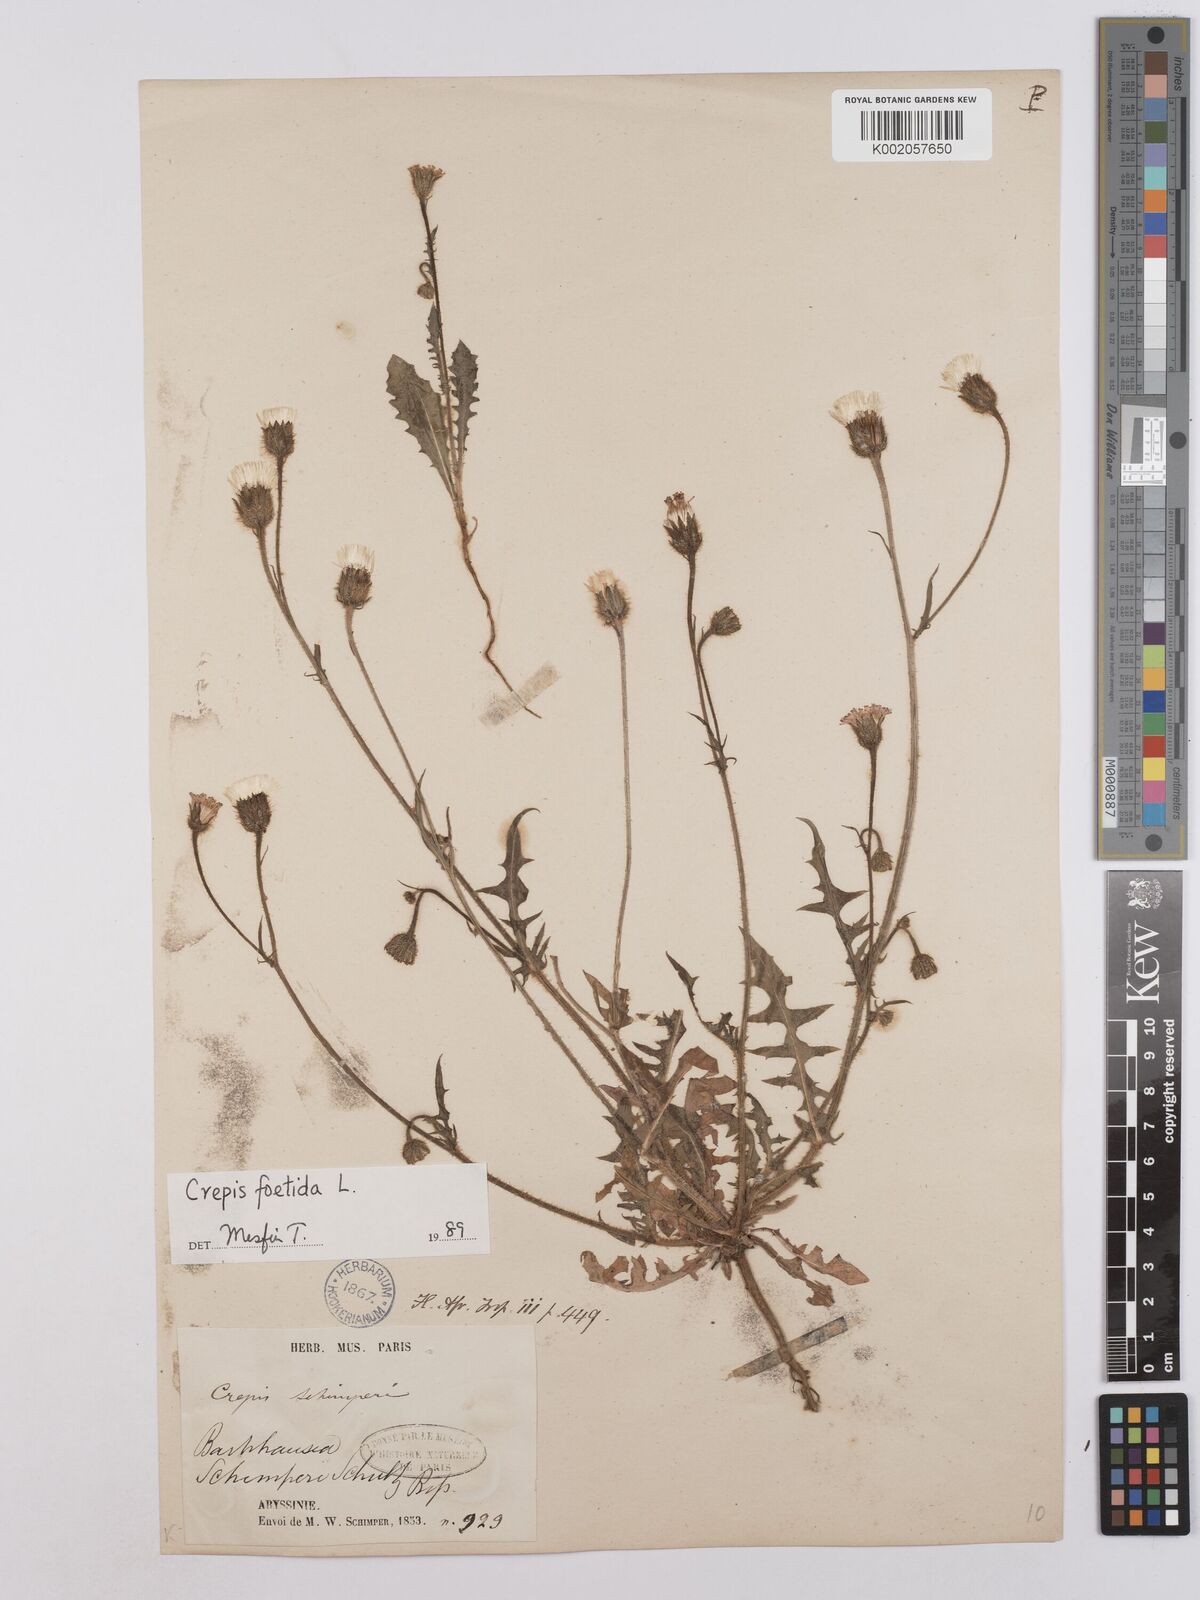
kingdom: Plantae
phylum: Tracheophyta
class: Magnoliopsida
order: Asterales
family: Asteraceae
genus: Crepis
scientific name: Crepis foetida
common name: Stinking hawk's-beard
